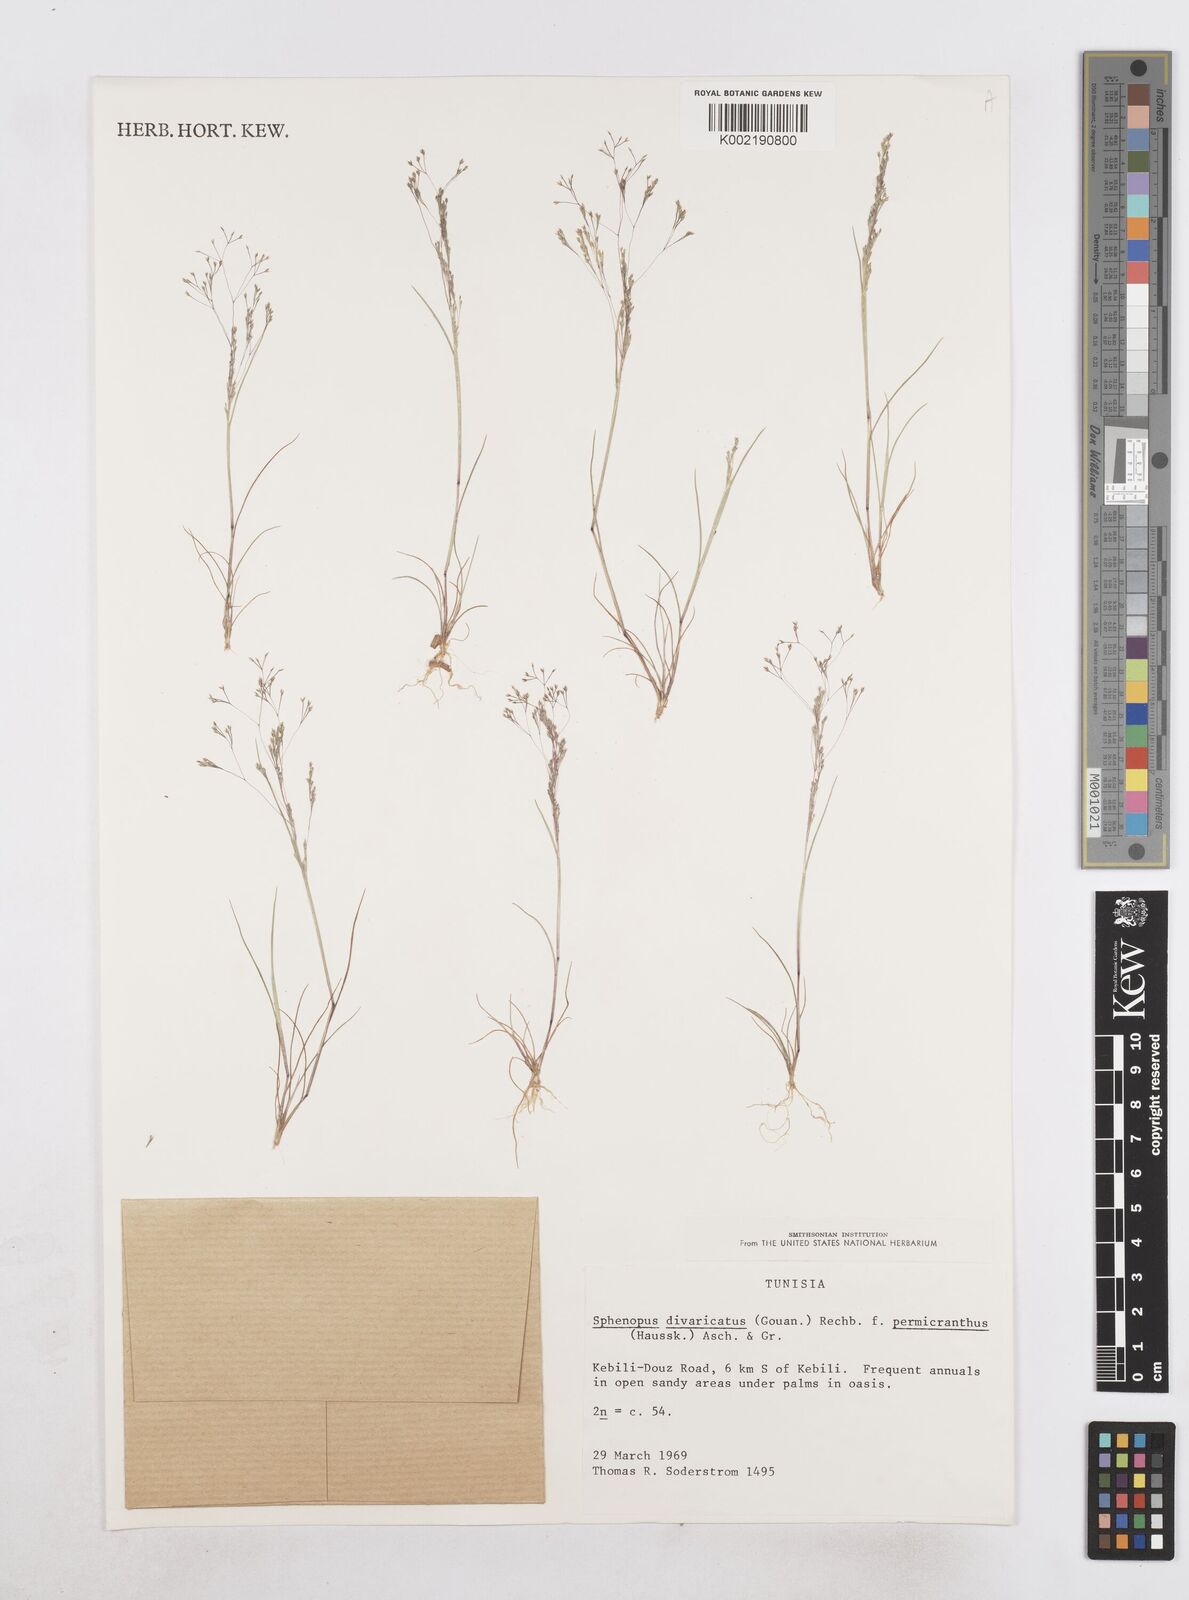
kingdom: Plantae
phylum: Tracheophyta
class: Liliopsida
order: Poales
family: Poaceae
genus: Sphenopus
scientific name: Sphenopus divaricatus
